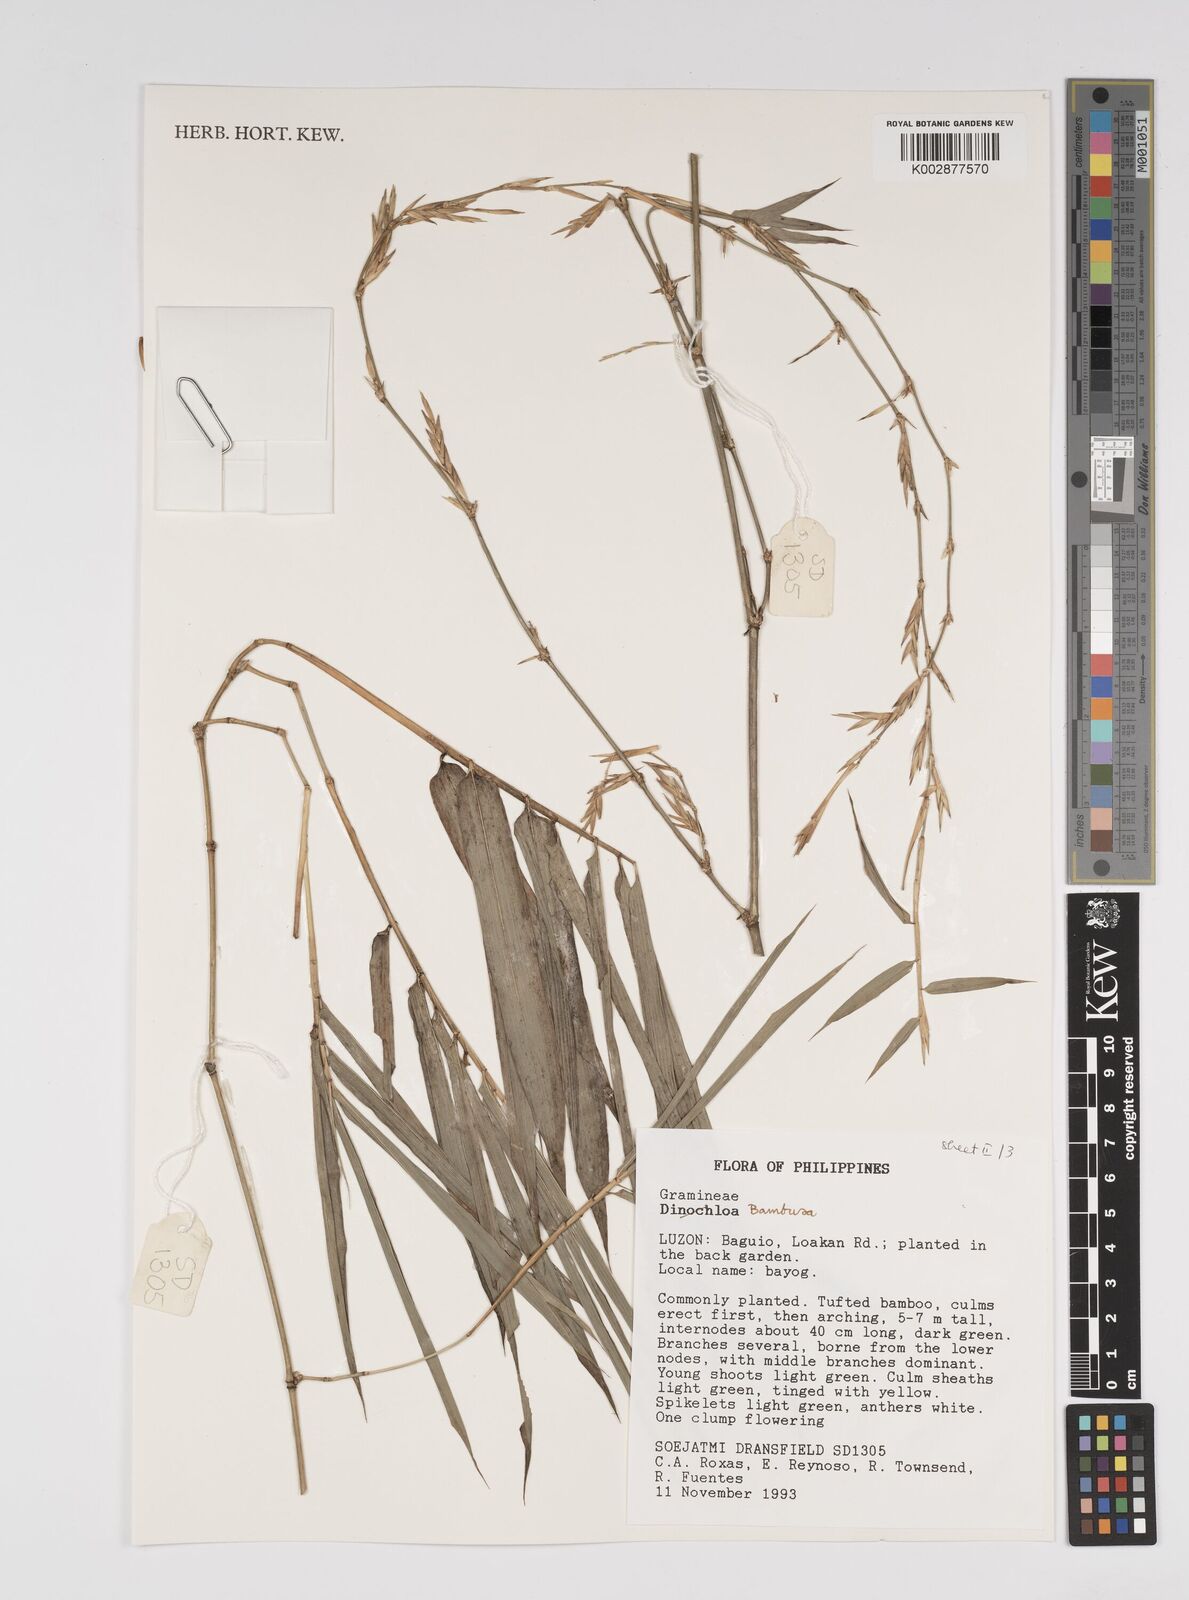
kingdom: Plantae
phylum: Tracheophyta
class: Liliopsida
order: Poales
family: Poaceae
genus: Bambusa
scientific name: Bambusa
